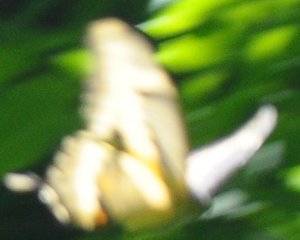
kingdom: Animalia
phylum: Arthropoda
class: Insecta
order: Lepidoptera
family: Papilionidae
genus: Papilio
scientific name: Papilio cresphontes
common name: Eastern Giant Swallowtail
